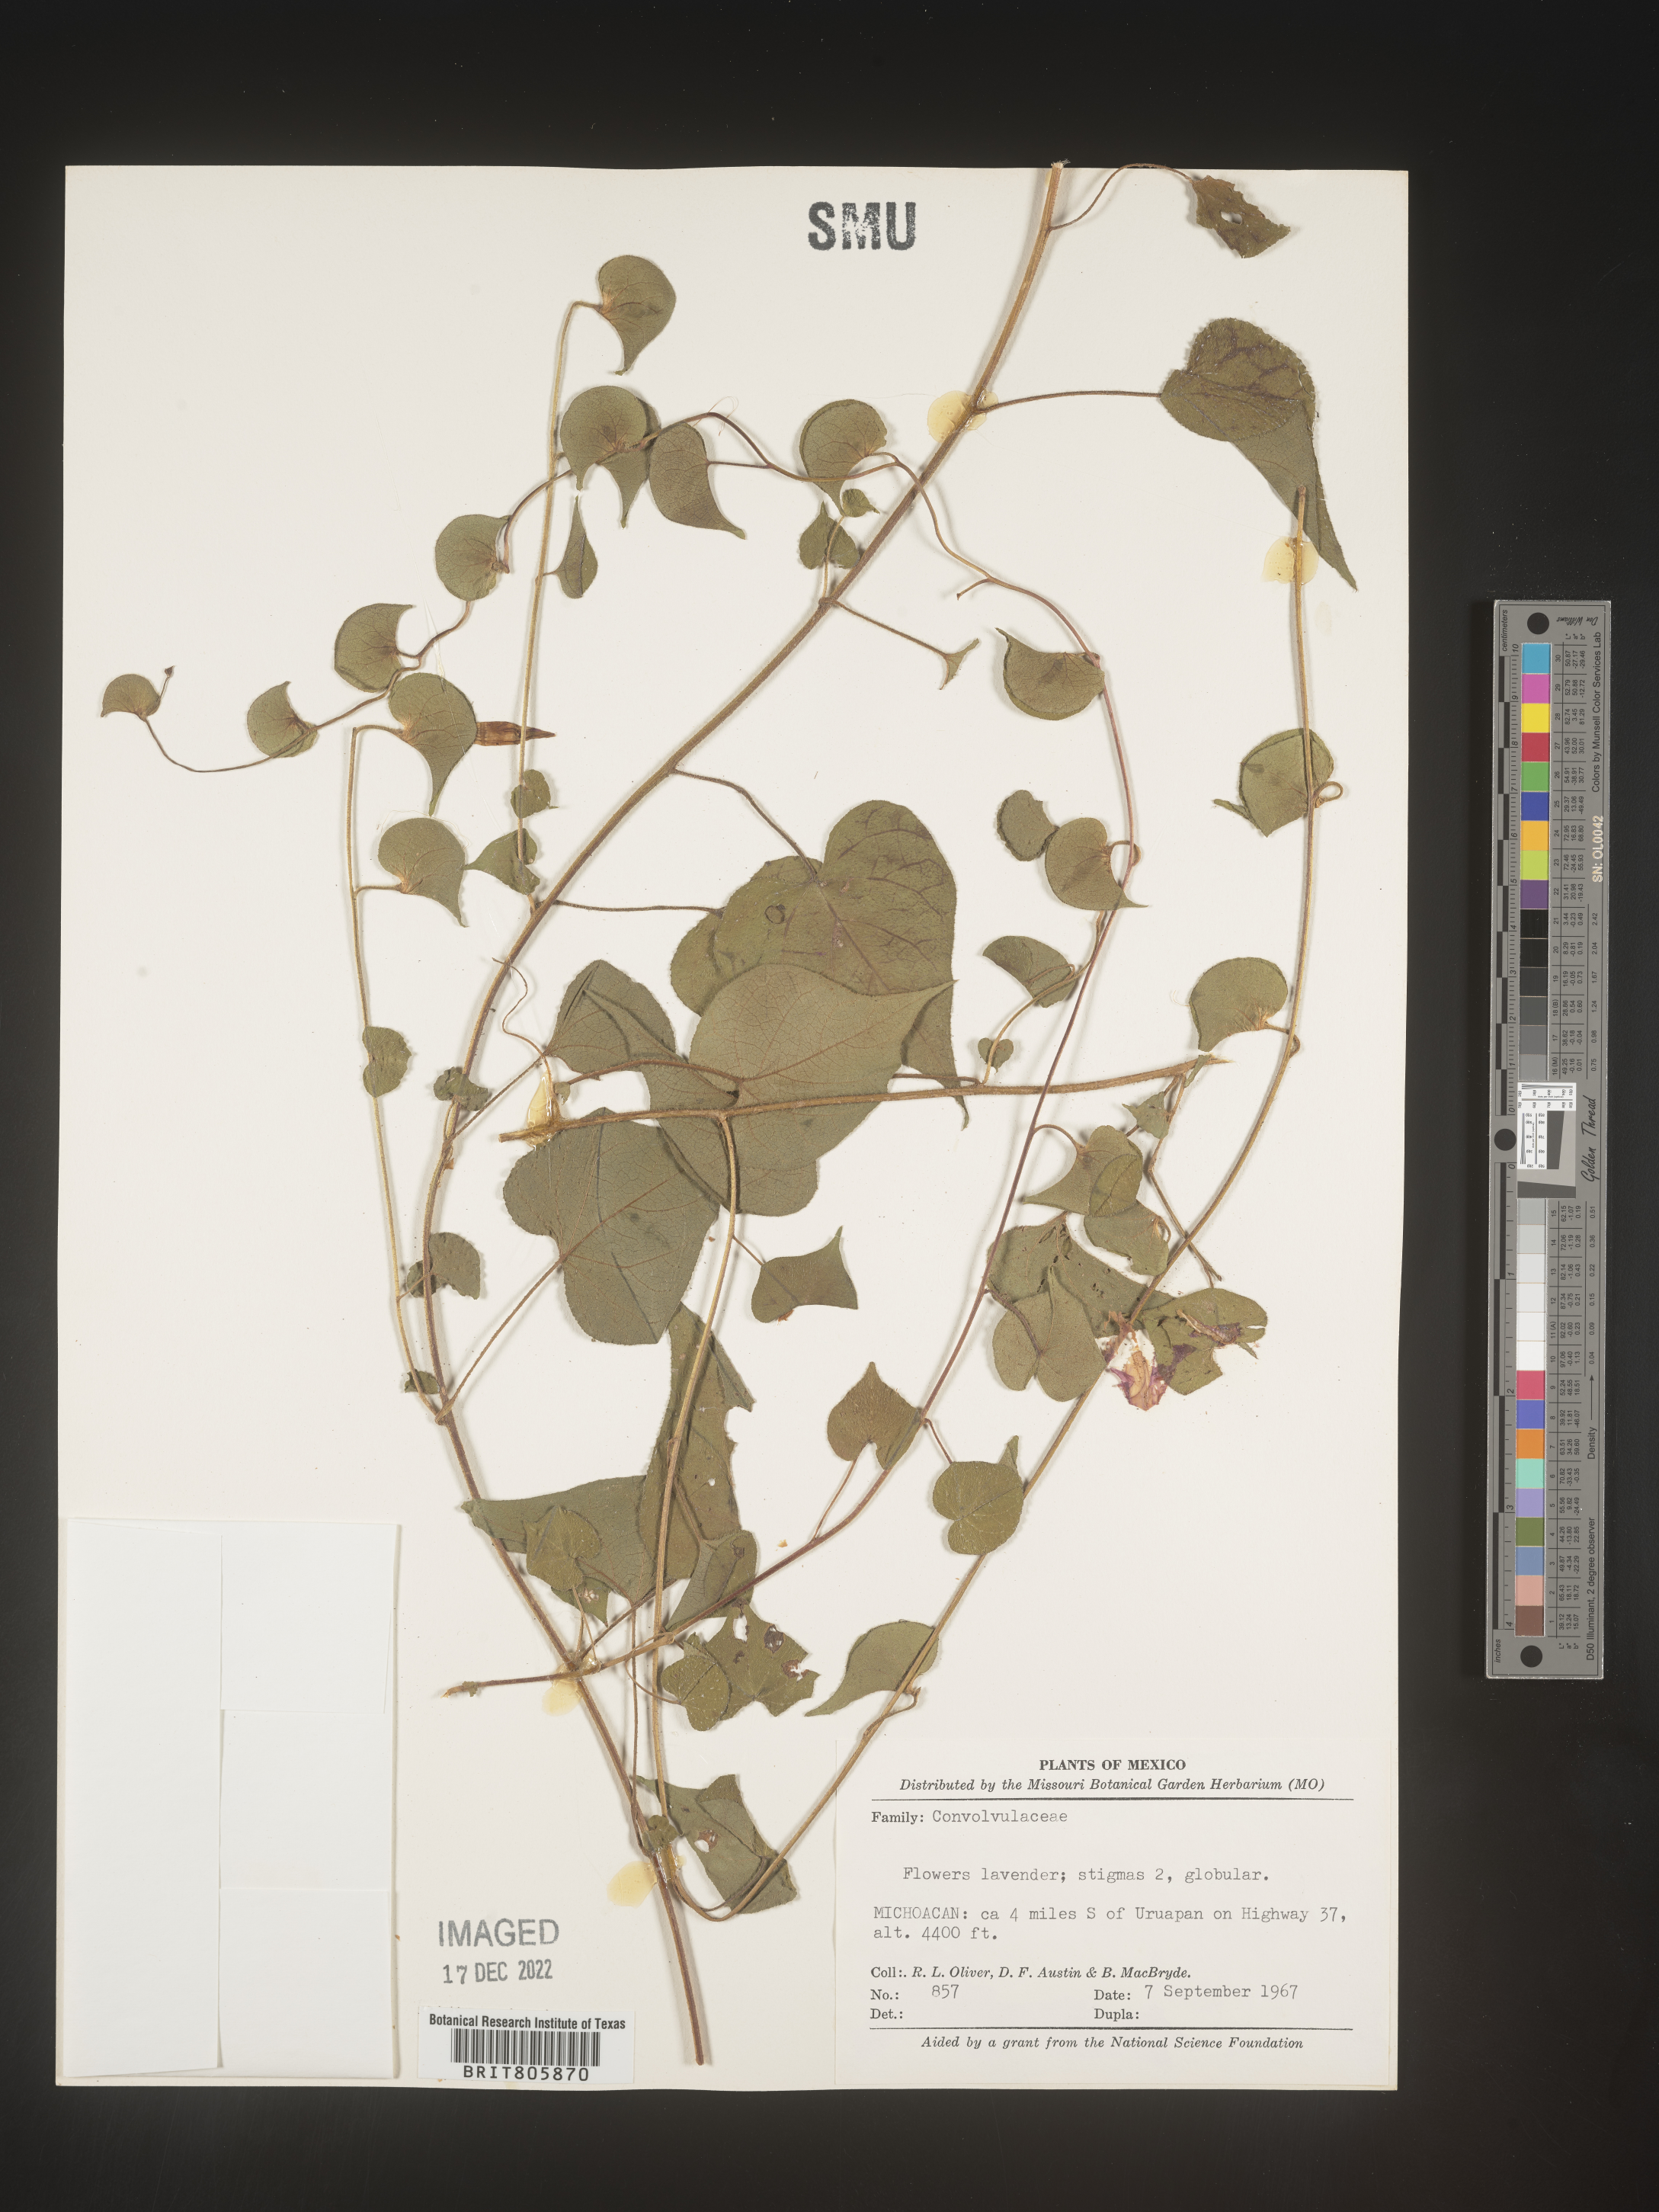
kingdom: Plantae
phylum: Tracheophyta
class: Magnoliopsida
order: Solanales
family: Convolvulaceae
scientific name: Convolvulaceae
